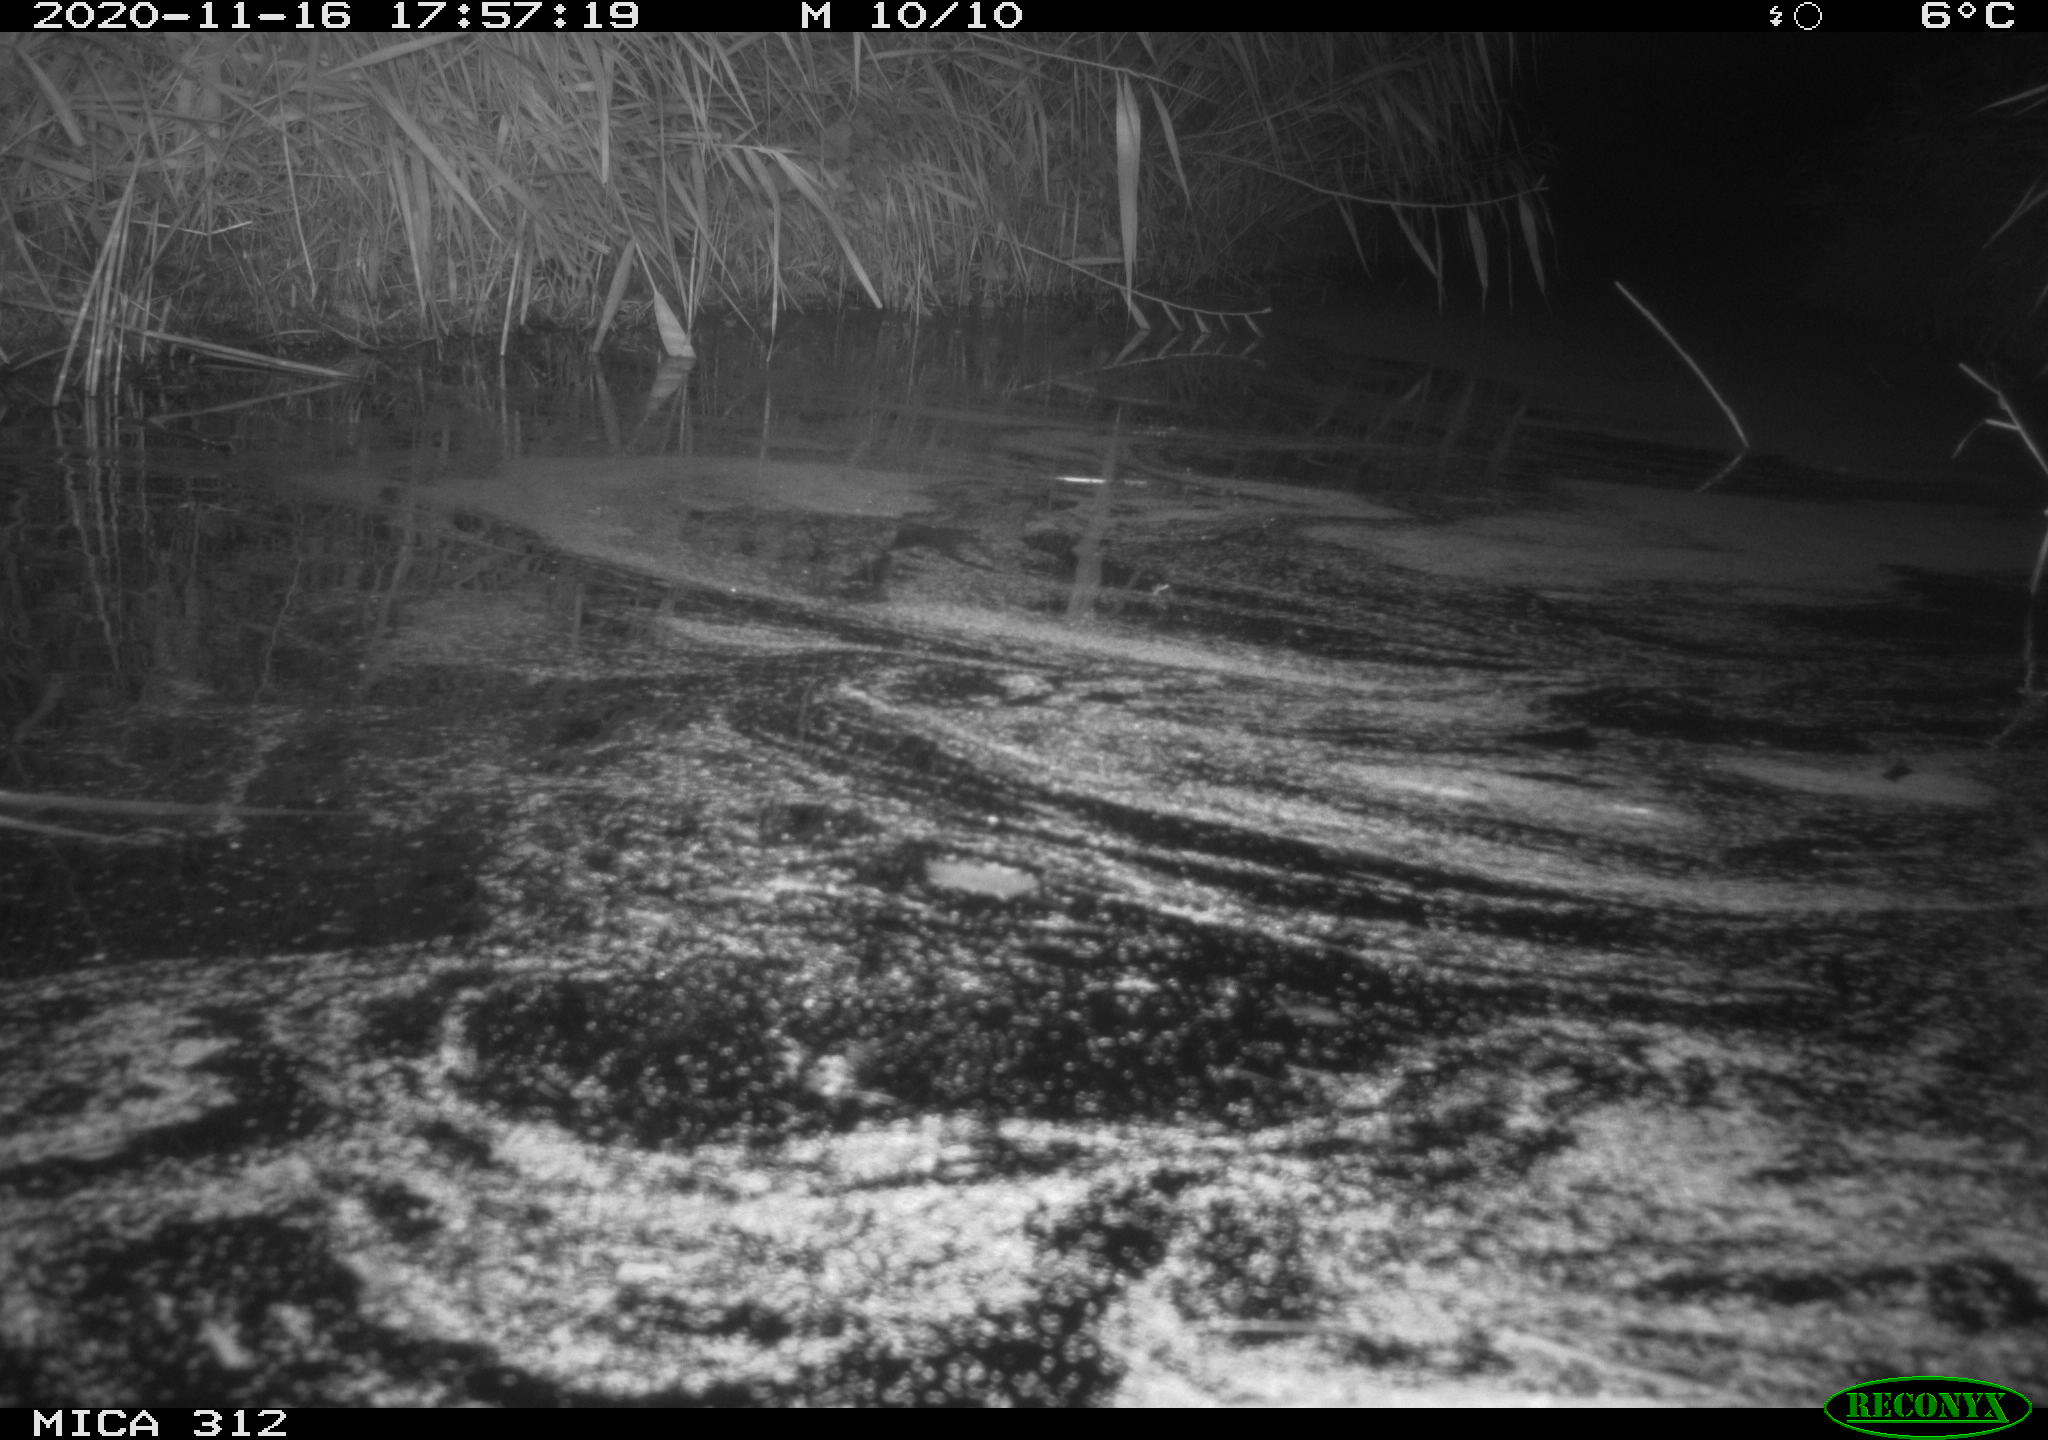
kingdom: Animalia
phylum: Chordata
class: Mammalia
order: Rodentia
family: Muridae
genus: Rattus
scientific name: Rattus norvegicus
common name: Brown rat
